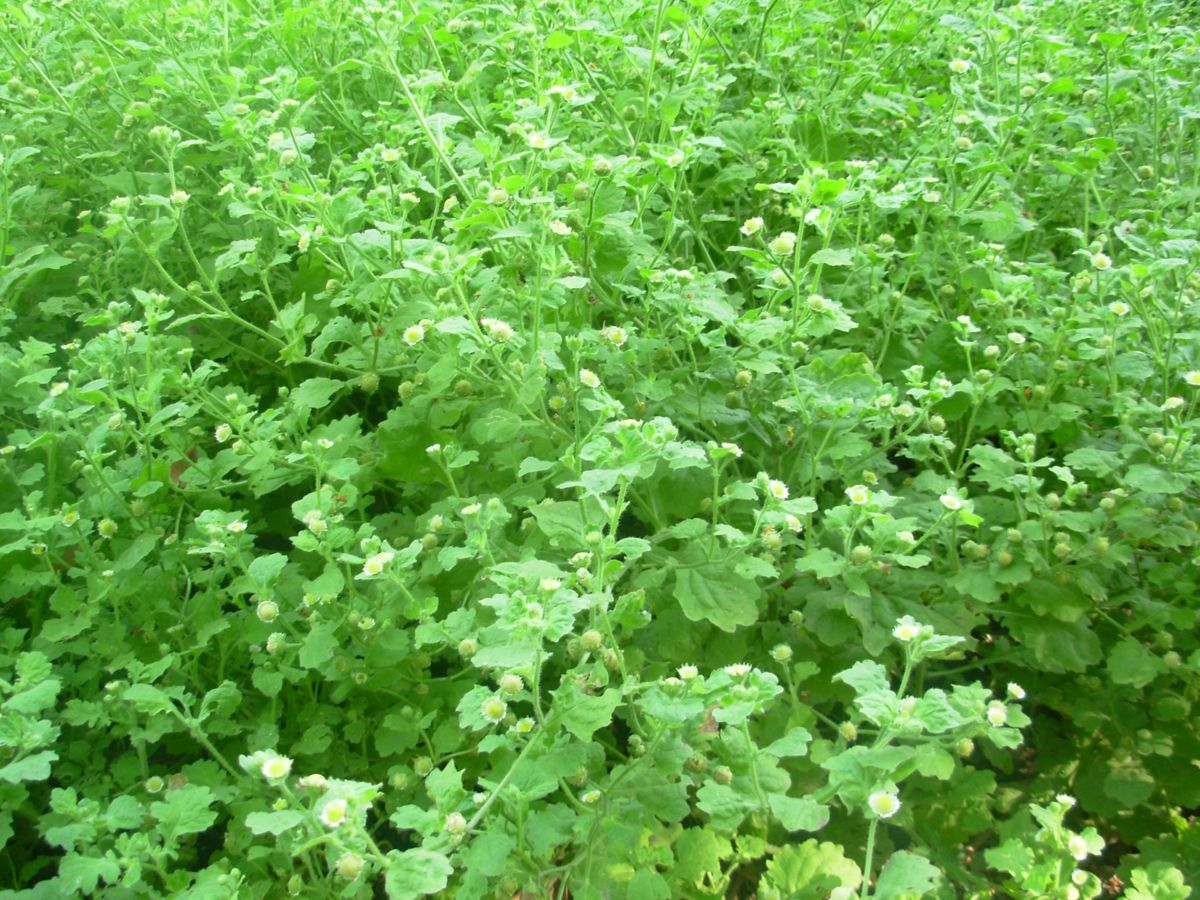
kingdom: Plantae
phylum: Tracheophyta
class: Magnoliopsida
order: Asterales
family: Asteraceae
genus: Egletes
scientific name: Egletes viscosa
